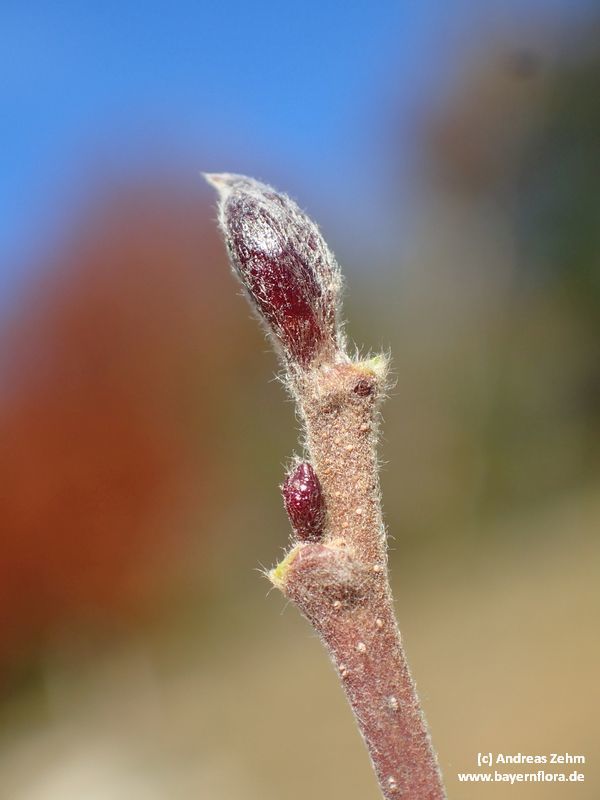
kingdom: Plantae
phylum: Tracheophyta
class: Magnoliopsida
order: Fagales
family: Betulaceae
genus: Alnus
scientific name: Alnus incana
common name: Grey alder
